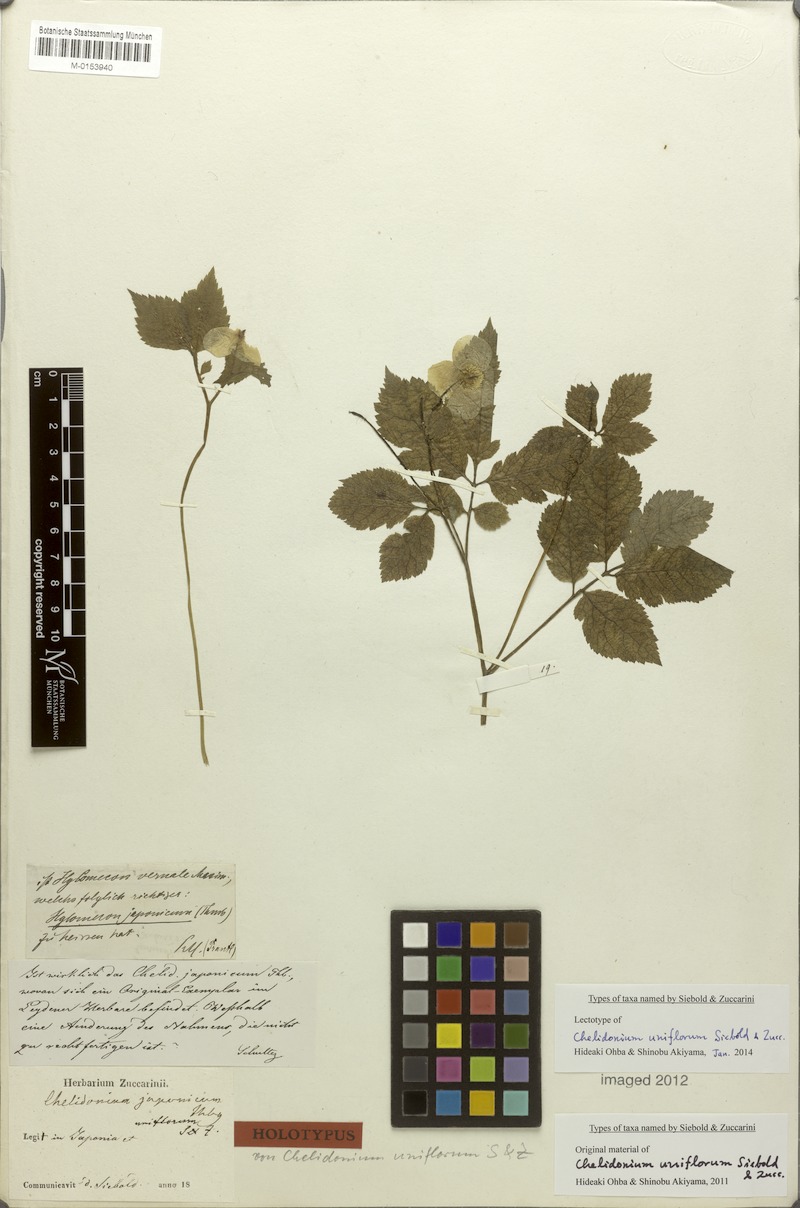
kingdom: Plantae
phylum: Tracheophyta
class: Magnoliopsida
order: Ranunculales
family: Papaveraceae
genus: Hylomecon
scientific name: Hylomecon japonicum
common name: Forest-poppy
